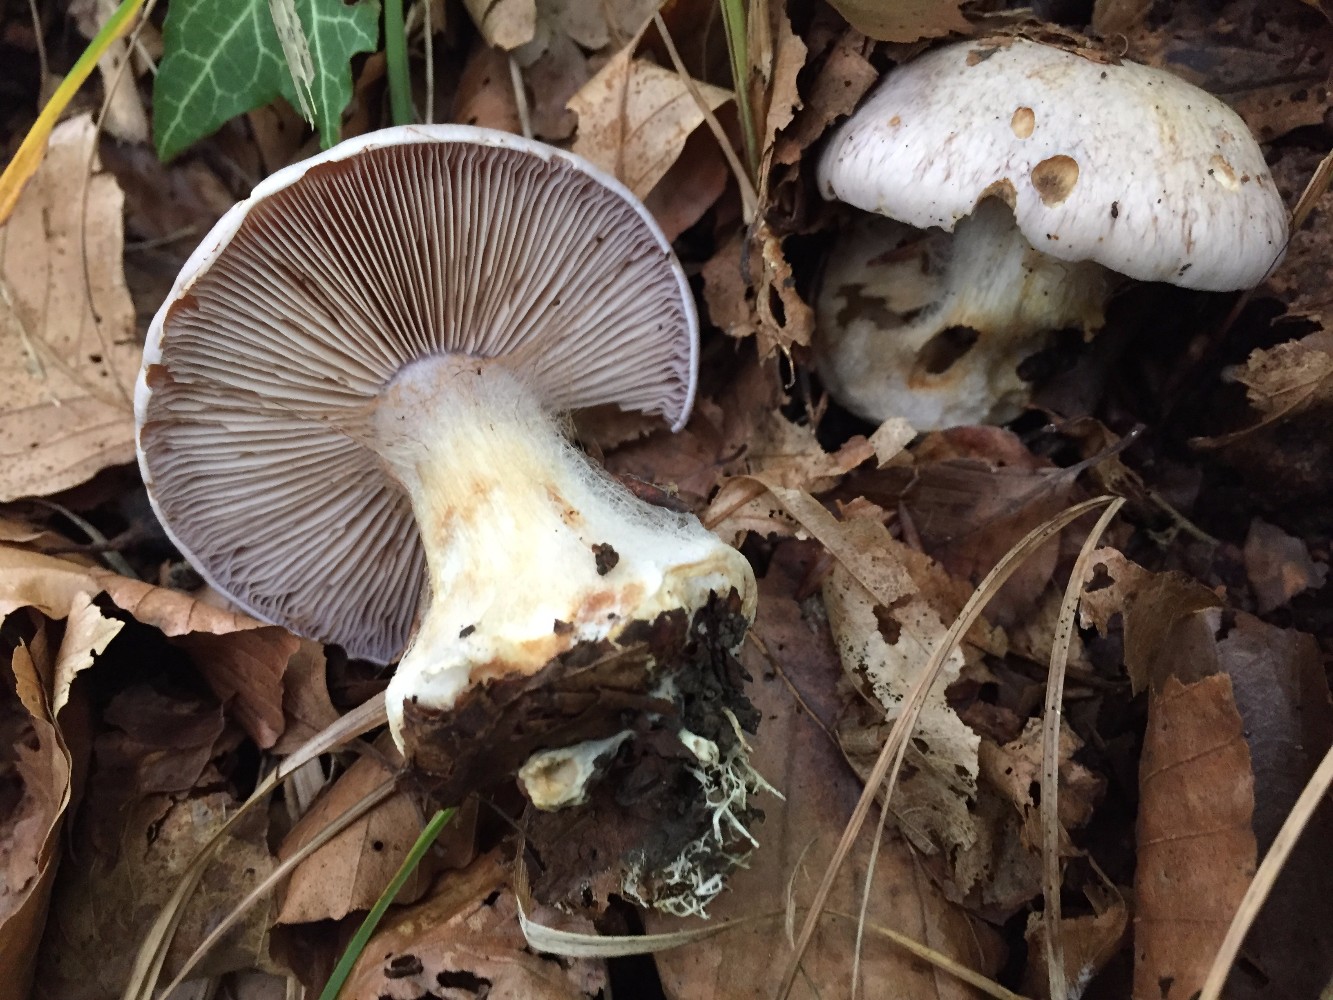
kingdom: Fungi
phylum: Basidiomycota
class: Agaricomycetes
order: Agaricales
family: Cortinariaceae
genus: Phlegmacium
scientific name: Phlegmacium coerulescentium
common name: gråbladet slørhat
